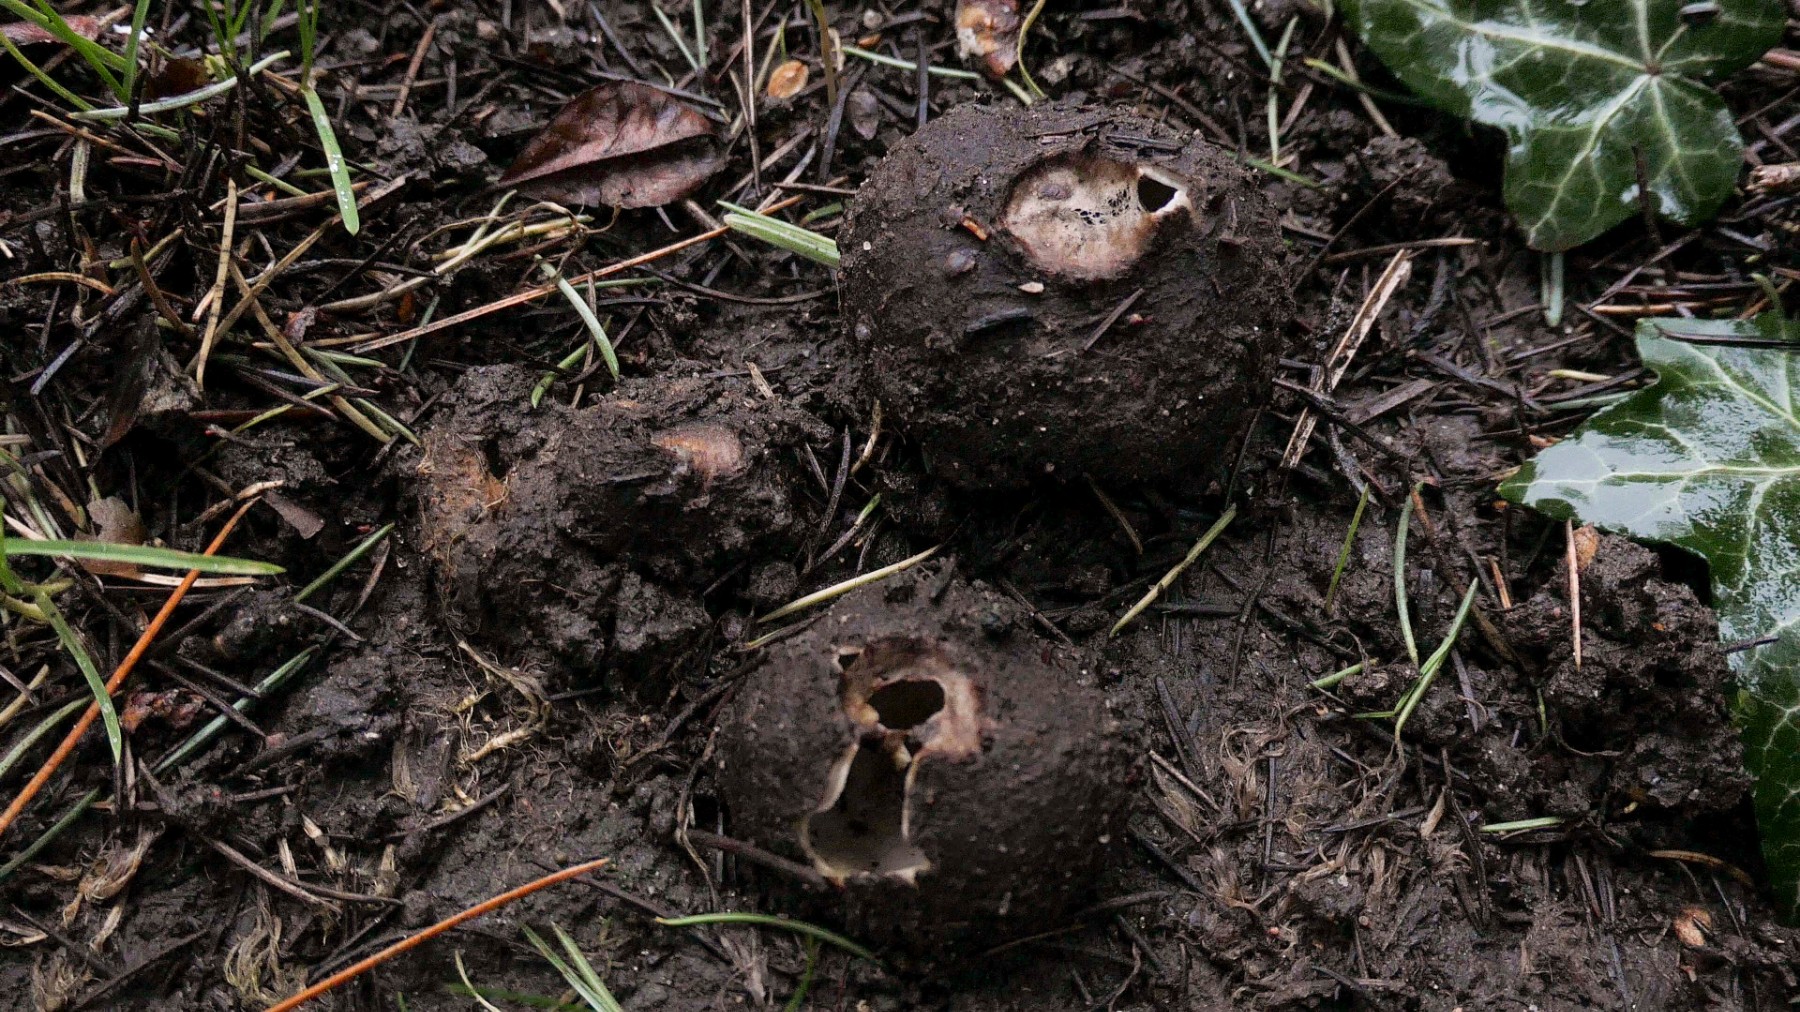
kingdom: Fungi
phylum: Ascomycota
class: Pezizomycetes
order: Pezizales
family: Pyronemataceae
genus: Geopora
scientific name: Geopora sumneriana
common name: vår-jordbæger
